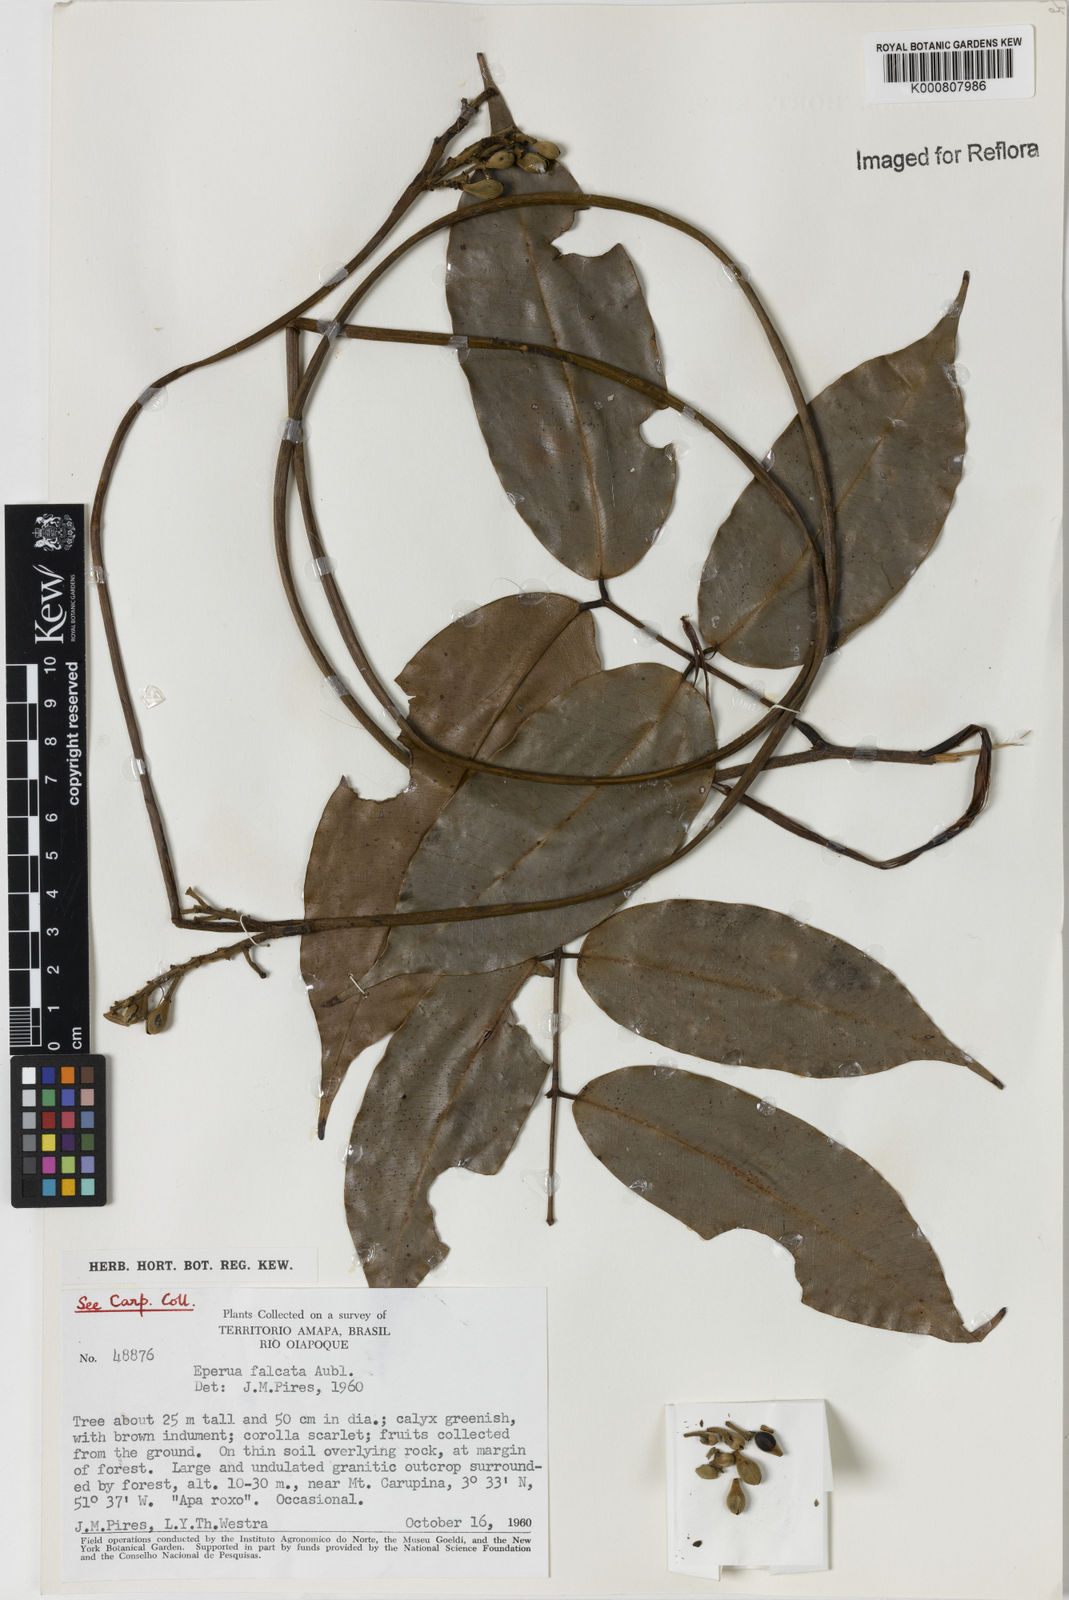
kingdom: Plantae
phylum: Tracheophyta
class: Magnoliopsida
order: Fabales
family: Fabaceae
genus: Eperua
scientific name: Eperua falcata
